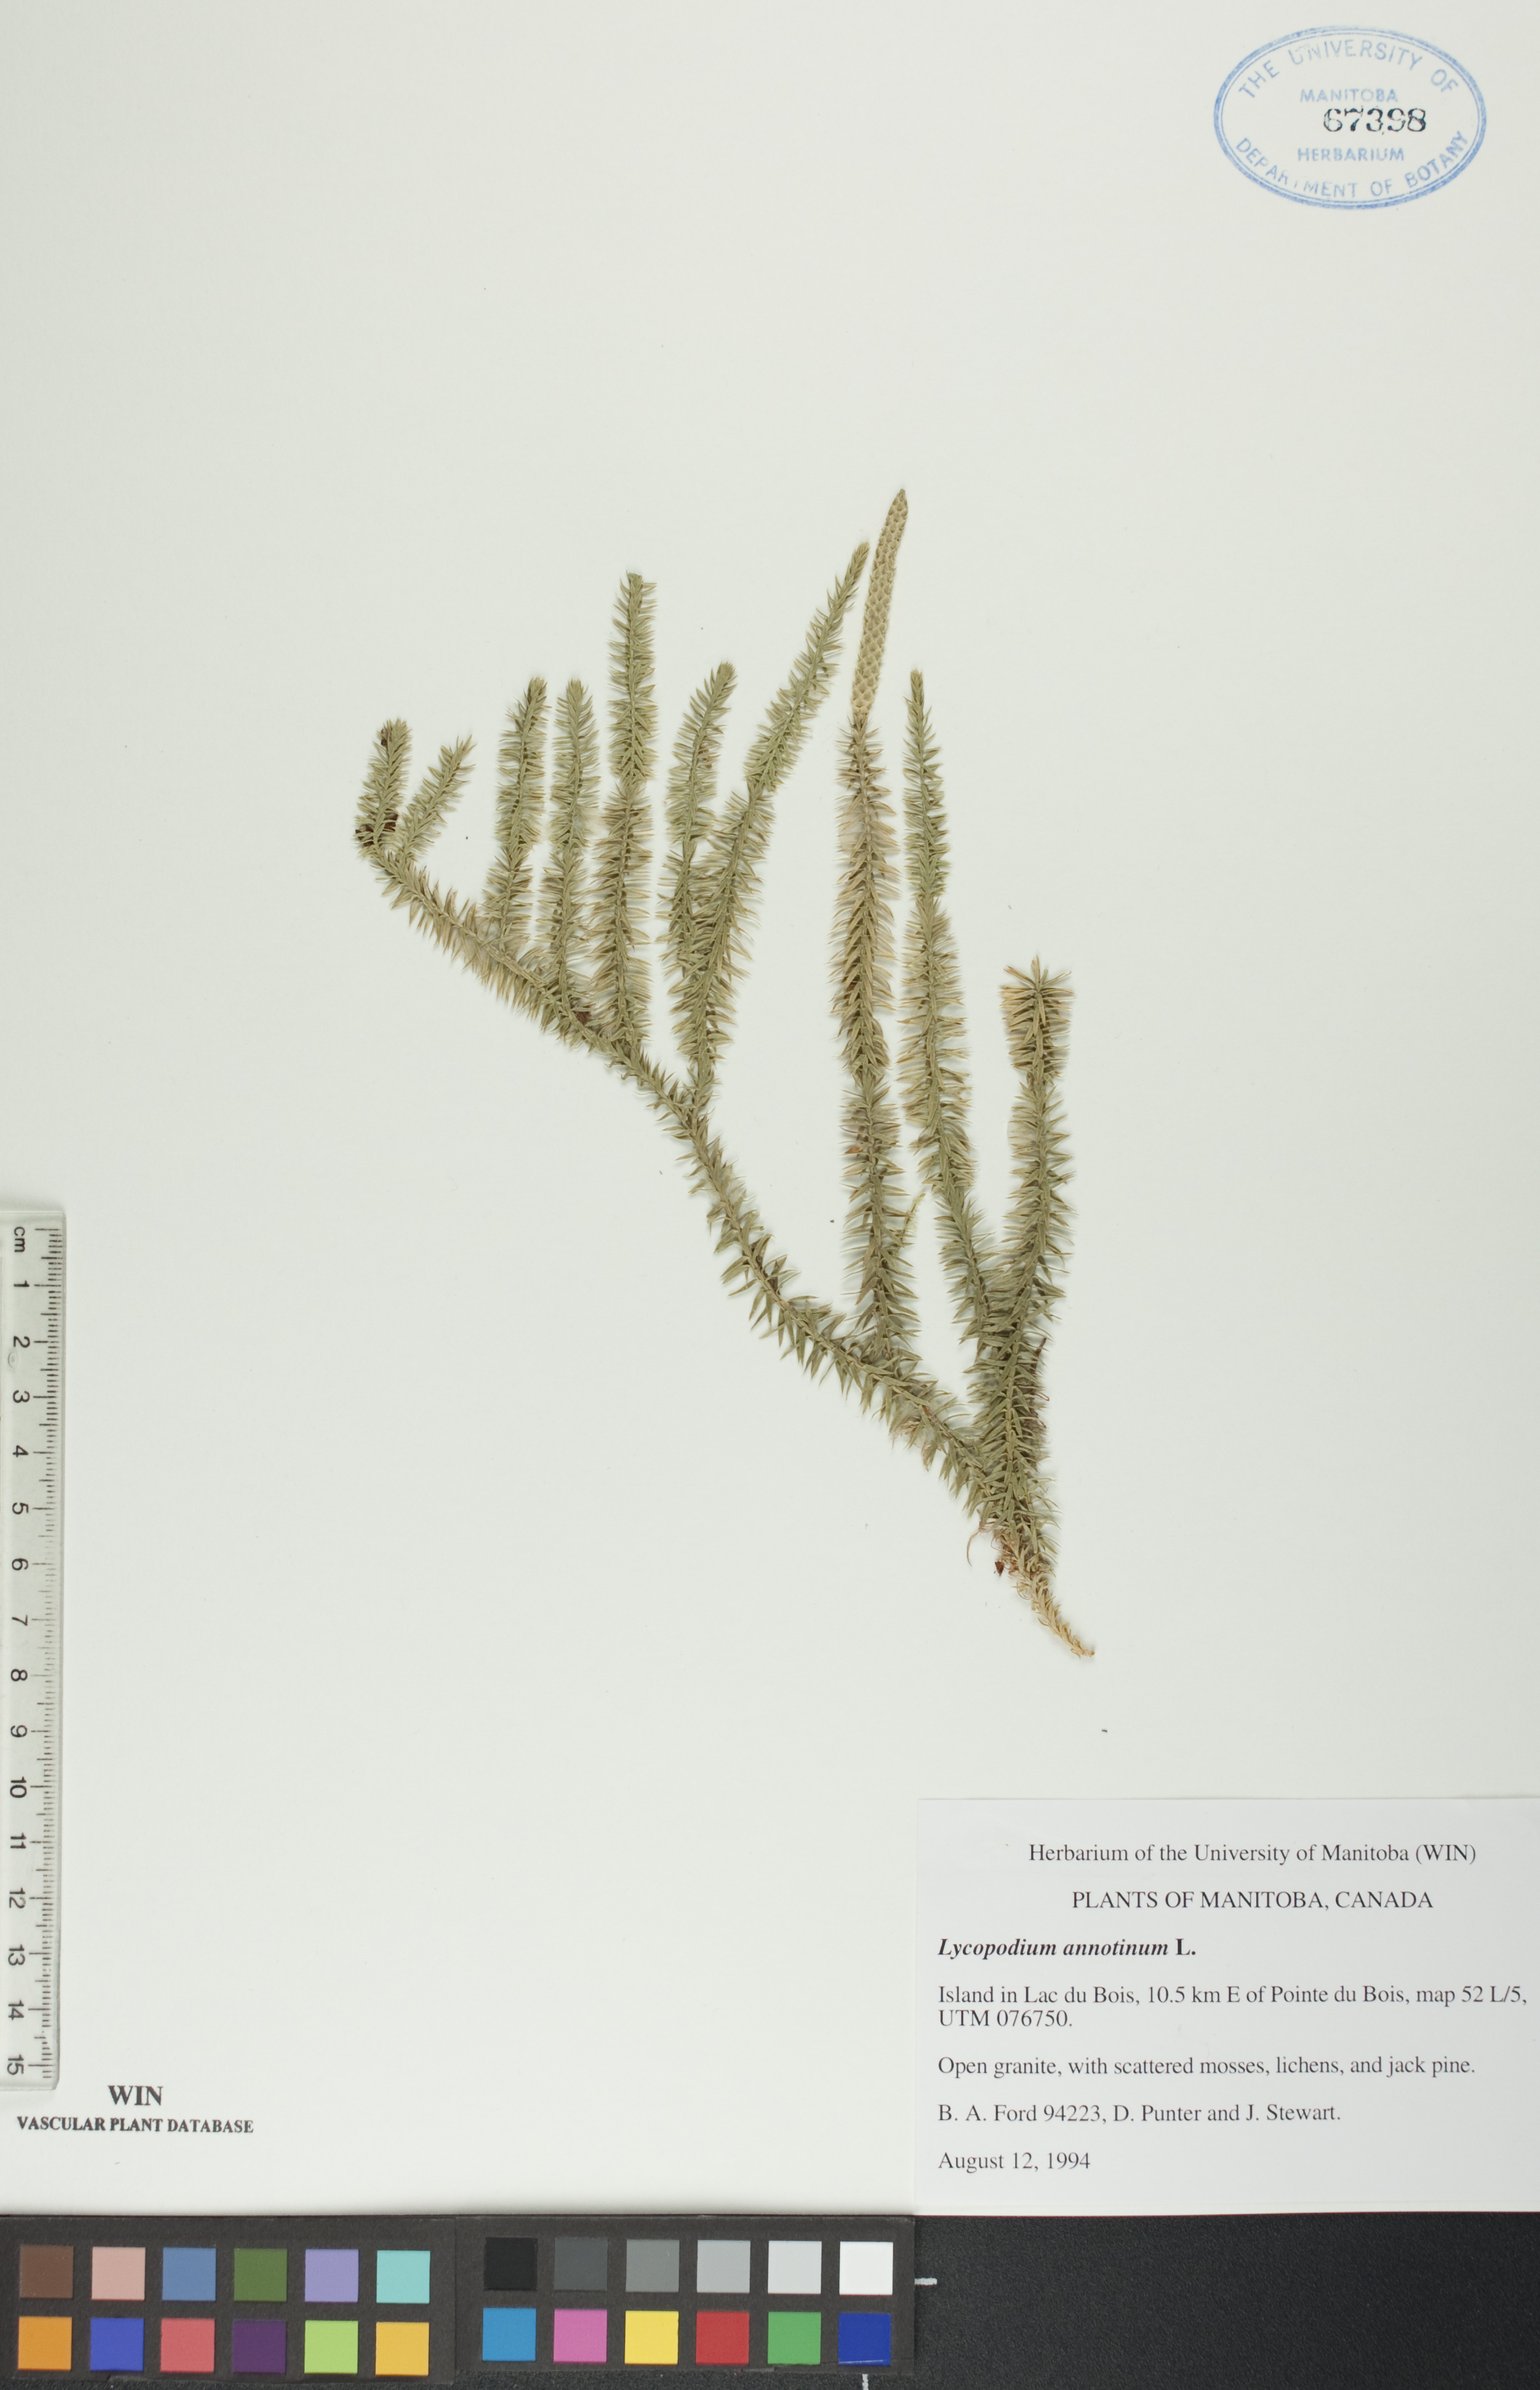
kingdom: Plantae
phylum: Tracheophyta
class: Lycopodiopsida
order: Lycopodiales
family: Lycopodiaceae
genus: Spinulum
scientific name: Spinulum annotinum
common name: Interrupted club-moss
